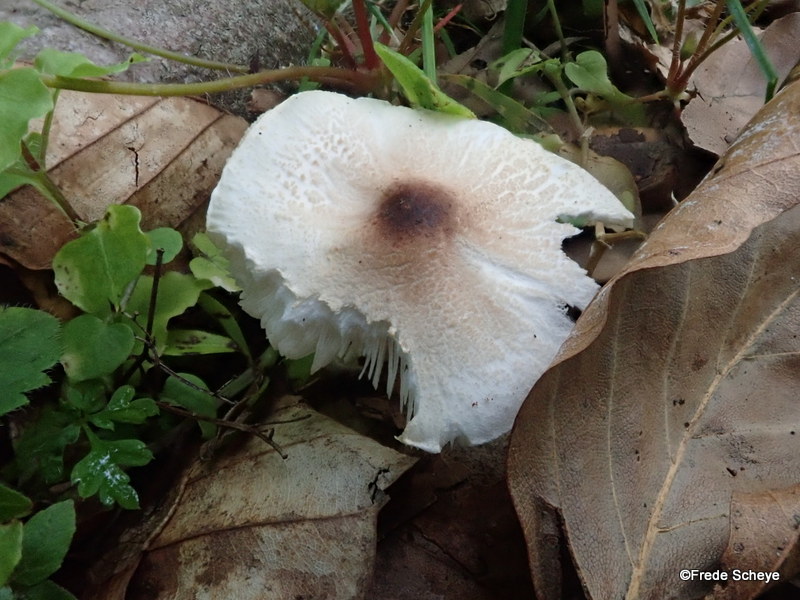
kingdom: Fungi
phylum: Basidiomycota
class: Agaricomycetes
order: Agaricales
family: Agaricaceae
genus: Lepiota
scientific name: Lepiota cristata
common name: stinkende parasolhat
